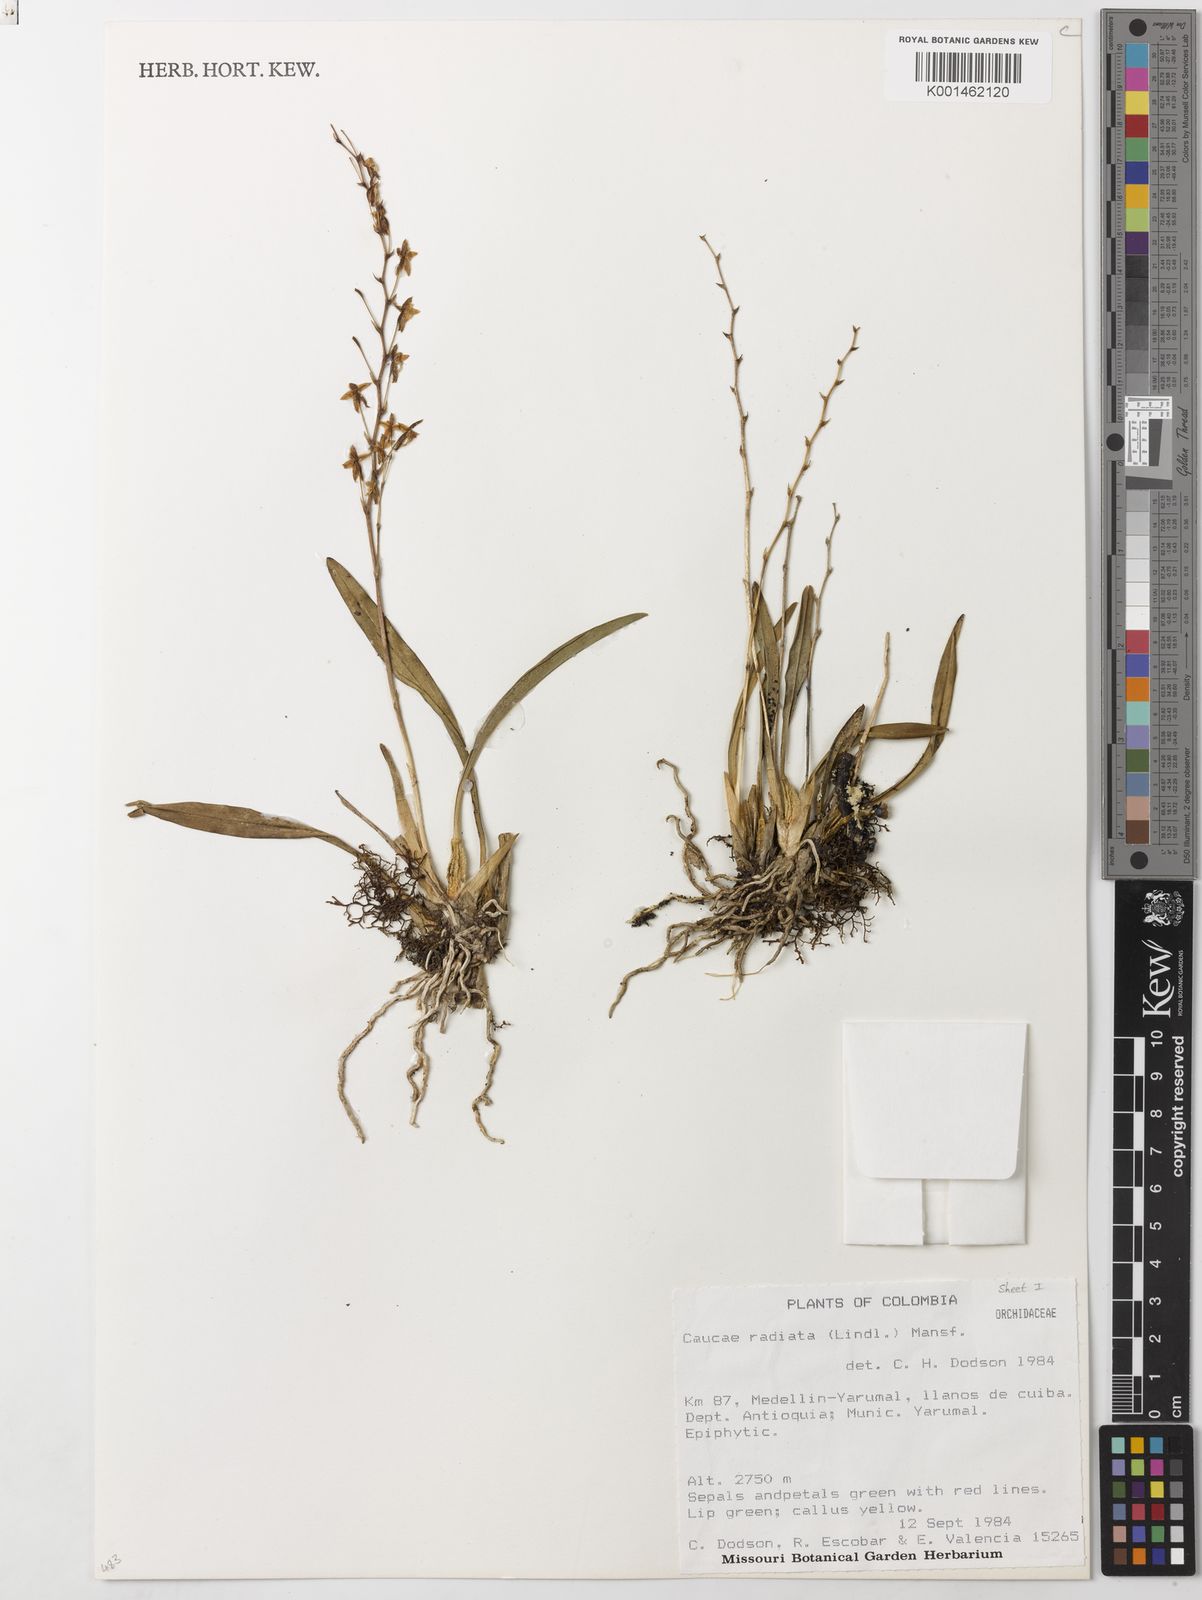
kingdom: Plantae
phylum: Tracheophyta
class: Liliopsida
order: Asparagales
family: Orchidaceae
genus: Caucaea
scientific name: Caucaea radiata
